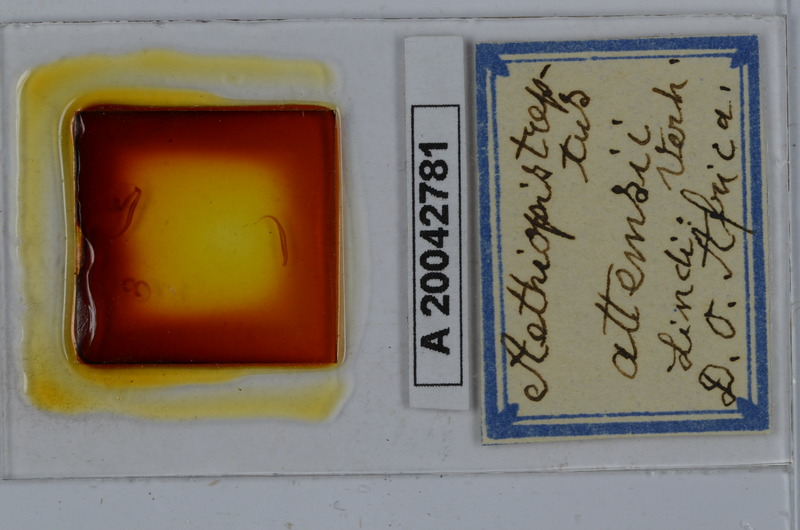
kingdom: Animalia
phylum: Arthropoda
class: Diplopoda
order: Spirostreptida
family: Spirostreptidae
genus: Archispirostreptus
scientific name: Archispirostreptus gigas
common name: Giant african millipede
